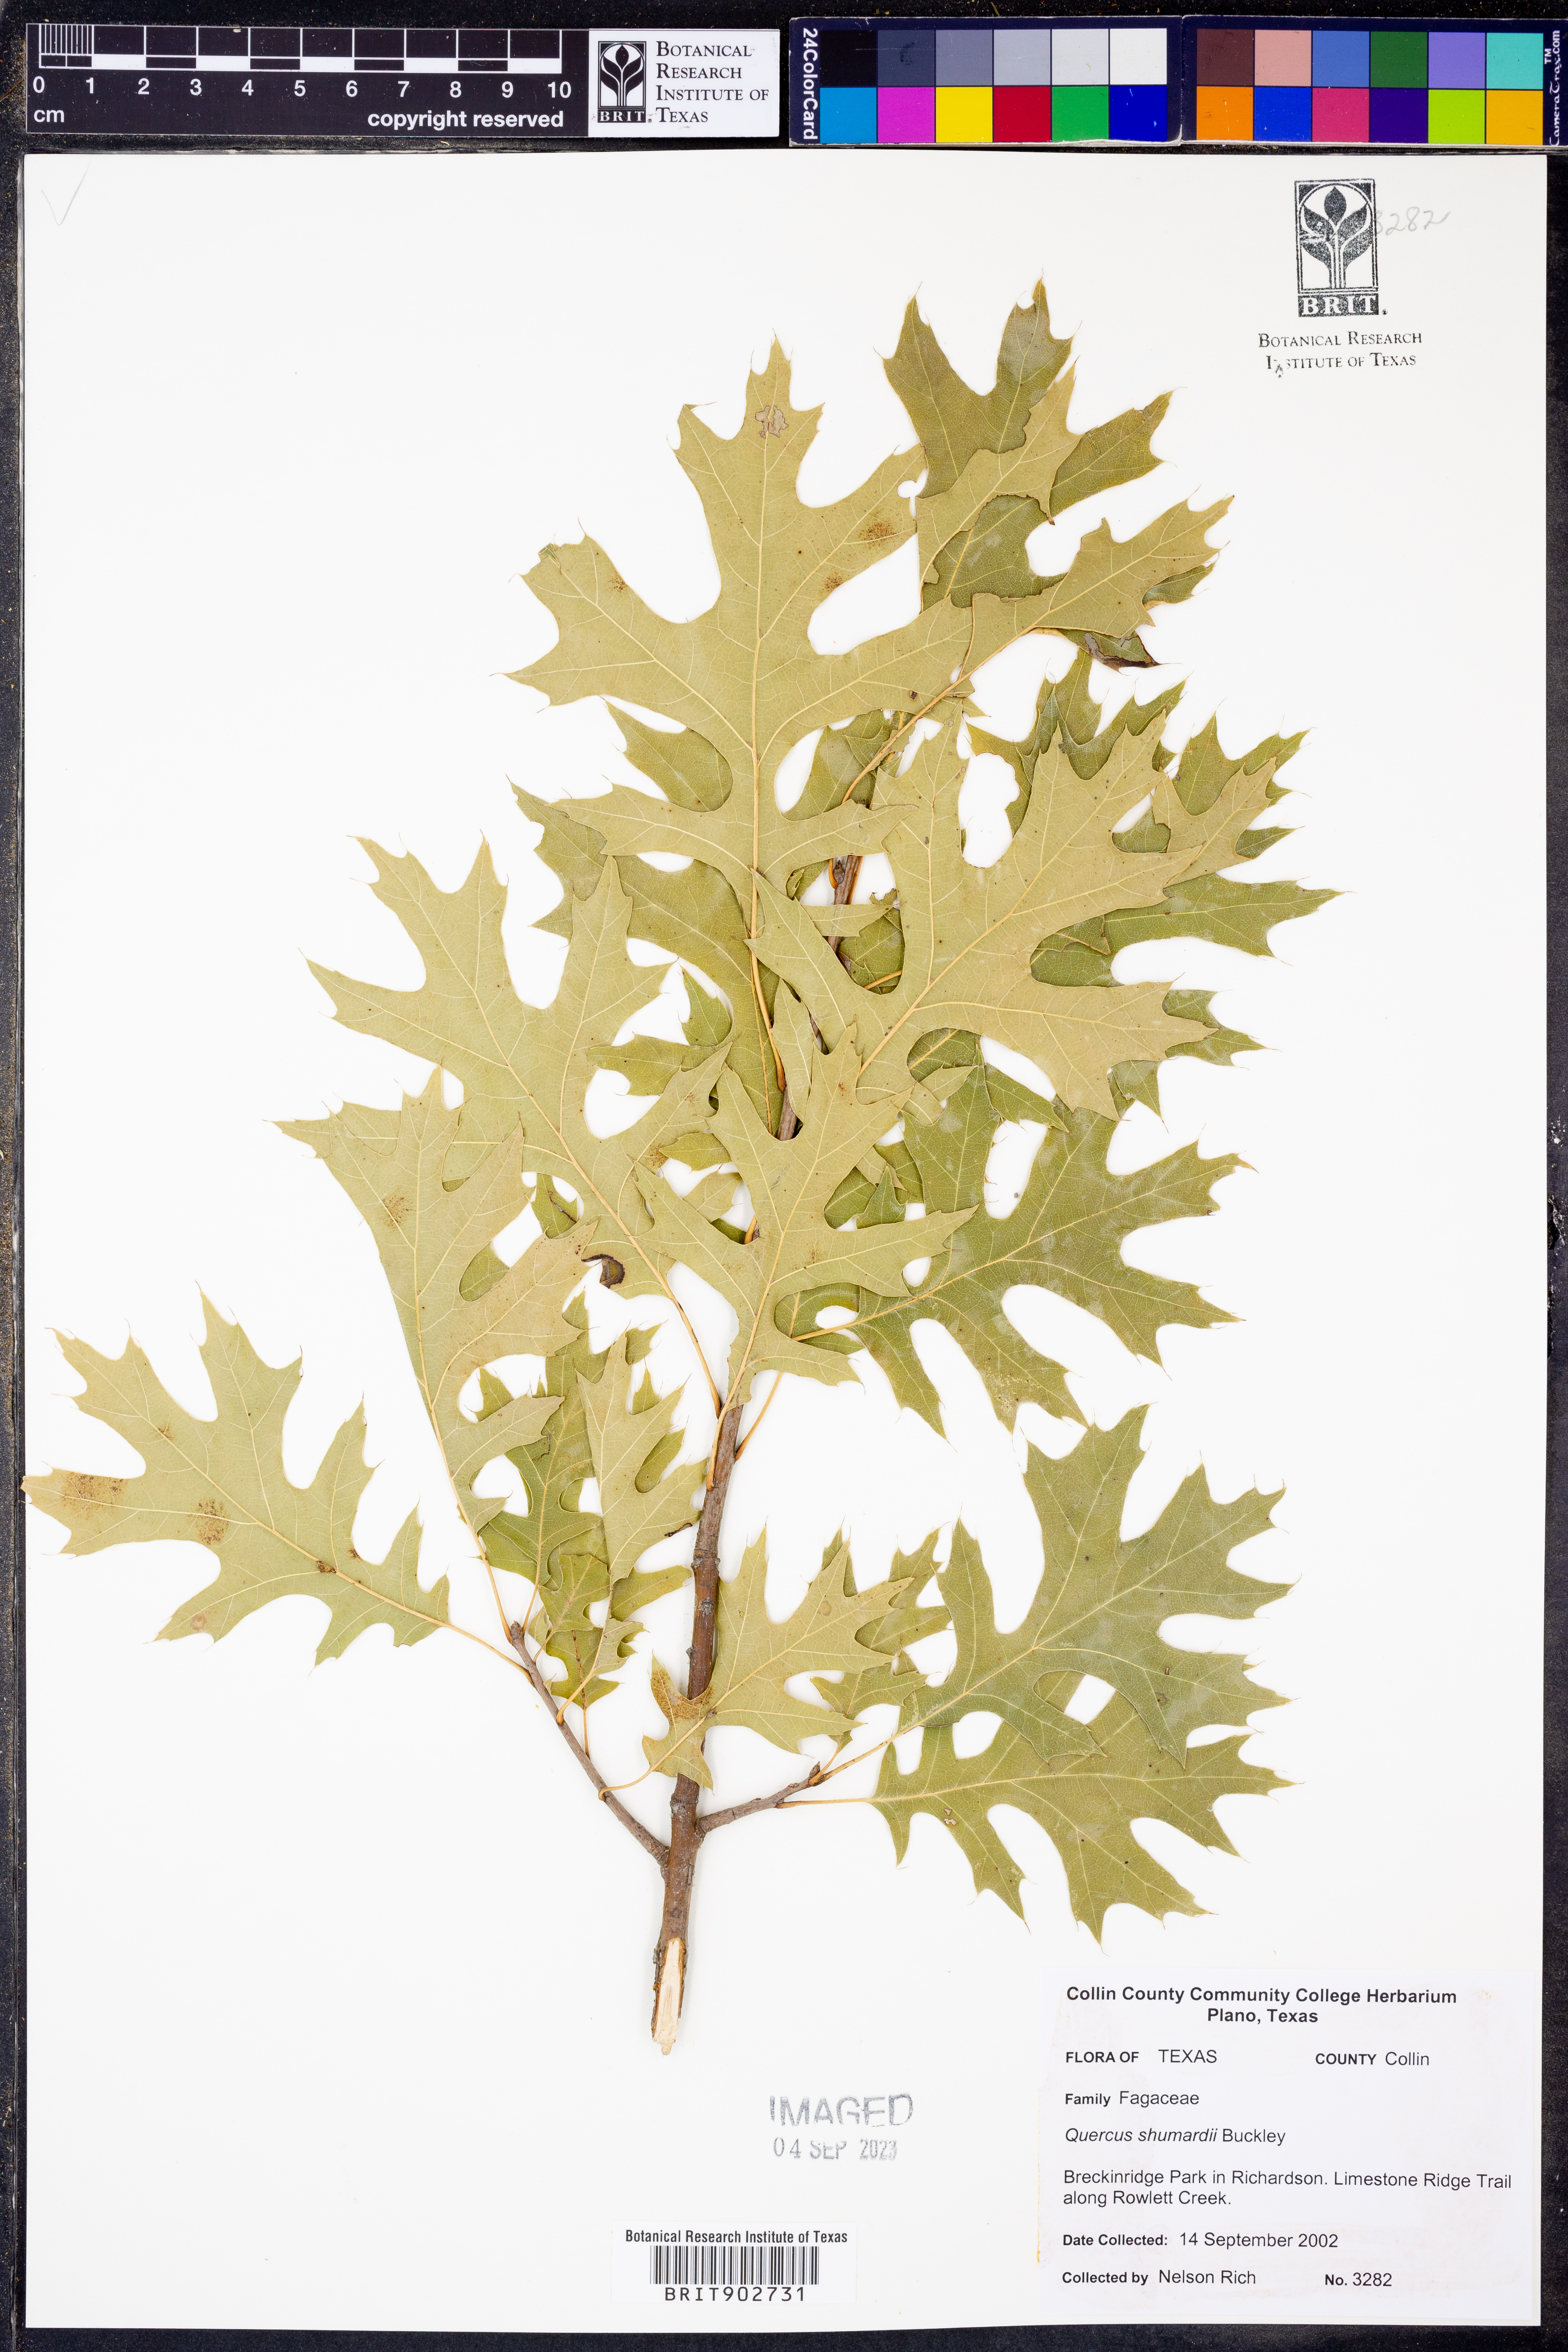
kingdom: Plantae
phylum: Tracheophyta
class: Magnoliopsida
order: Fagales
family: Fagaceae
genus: Quercus
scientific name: Quercus shumardii
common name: Shumard oak
